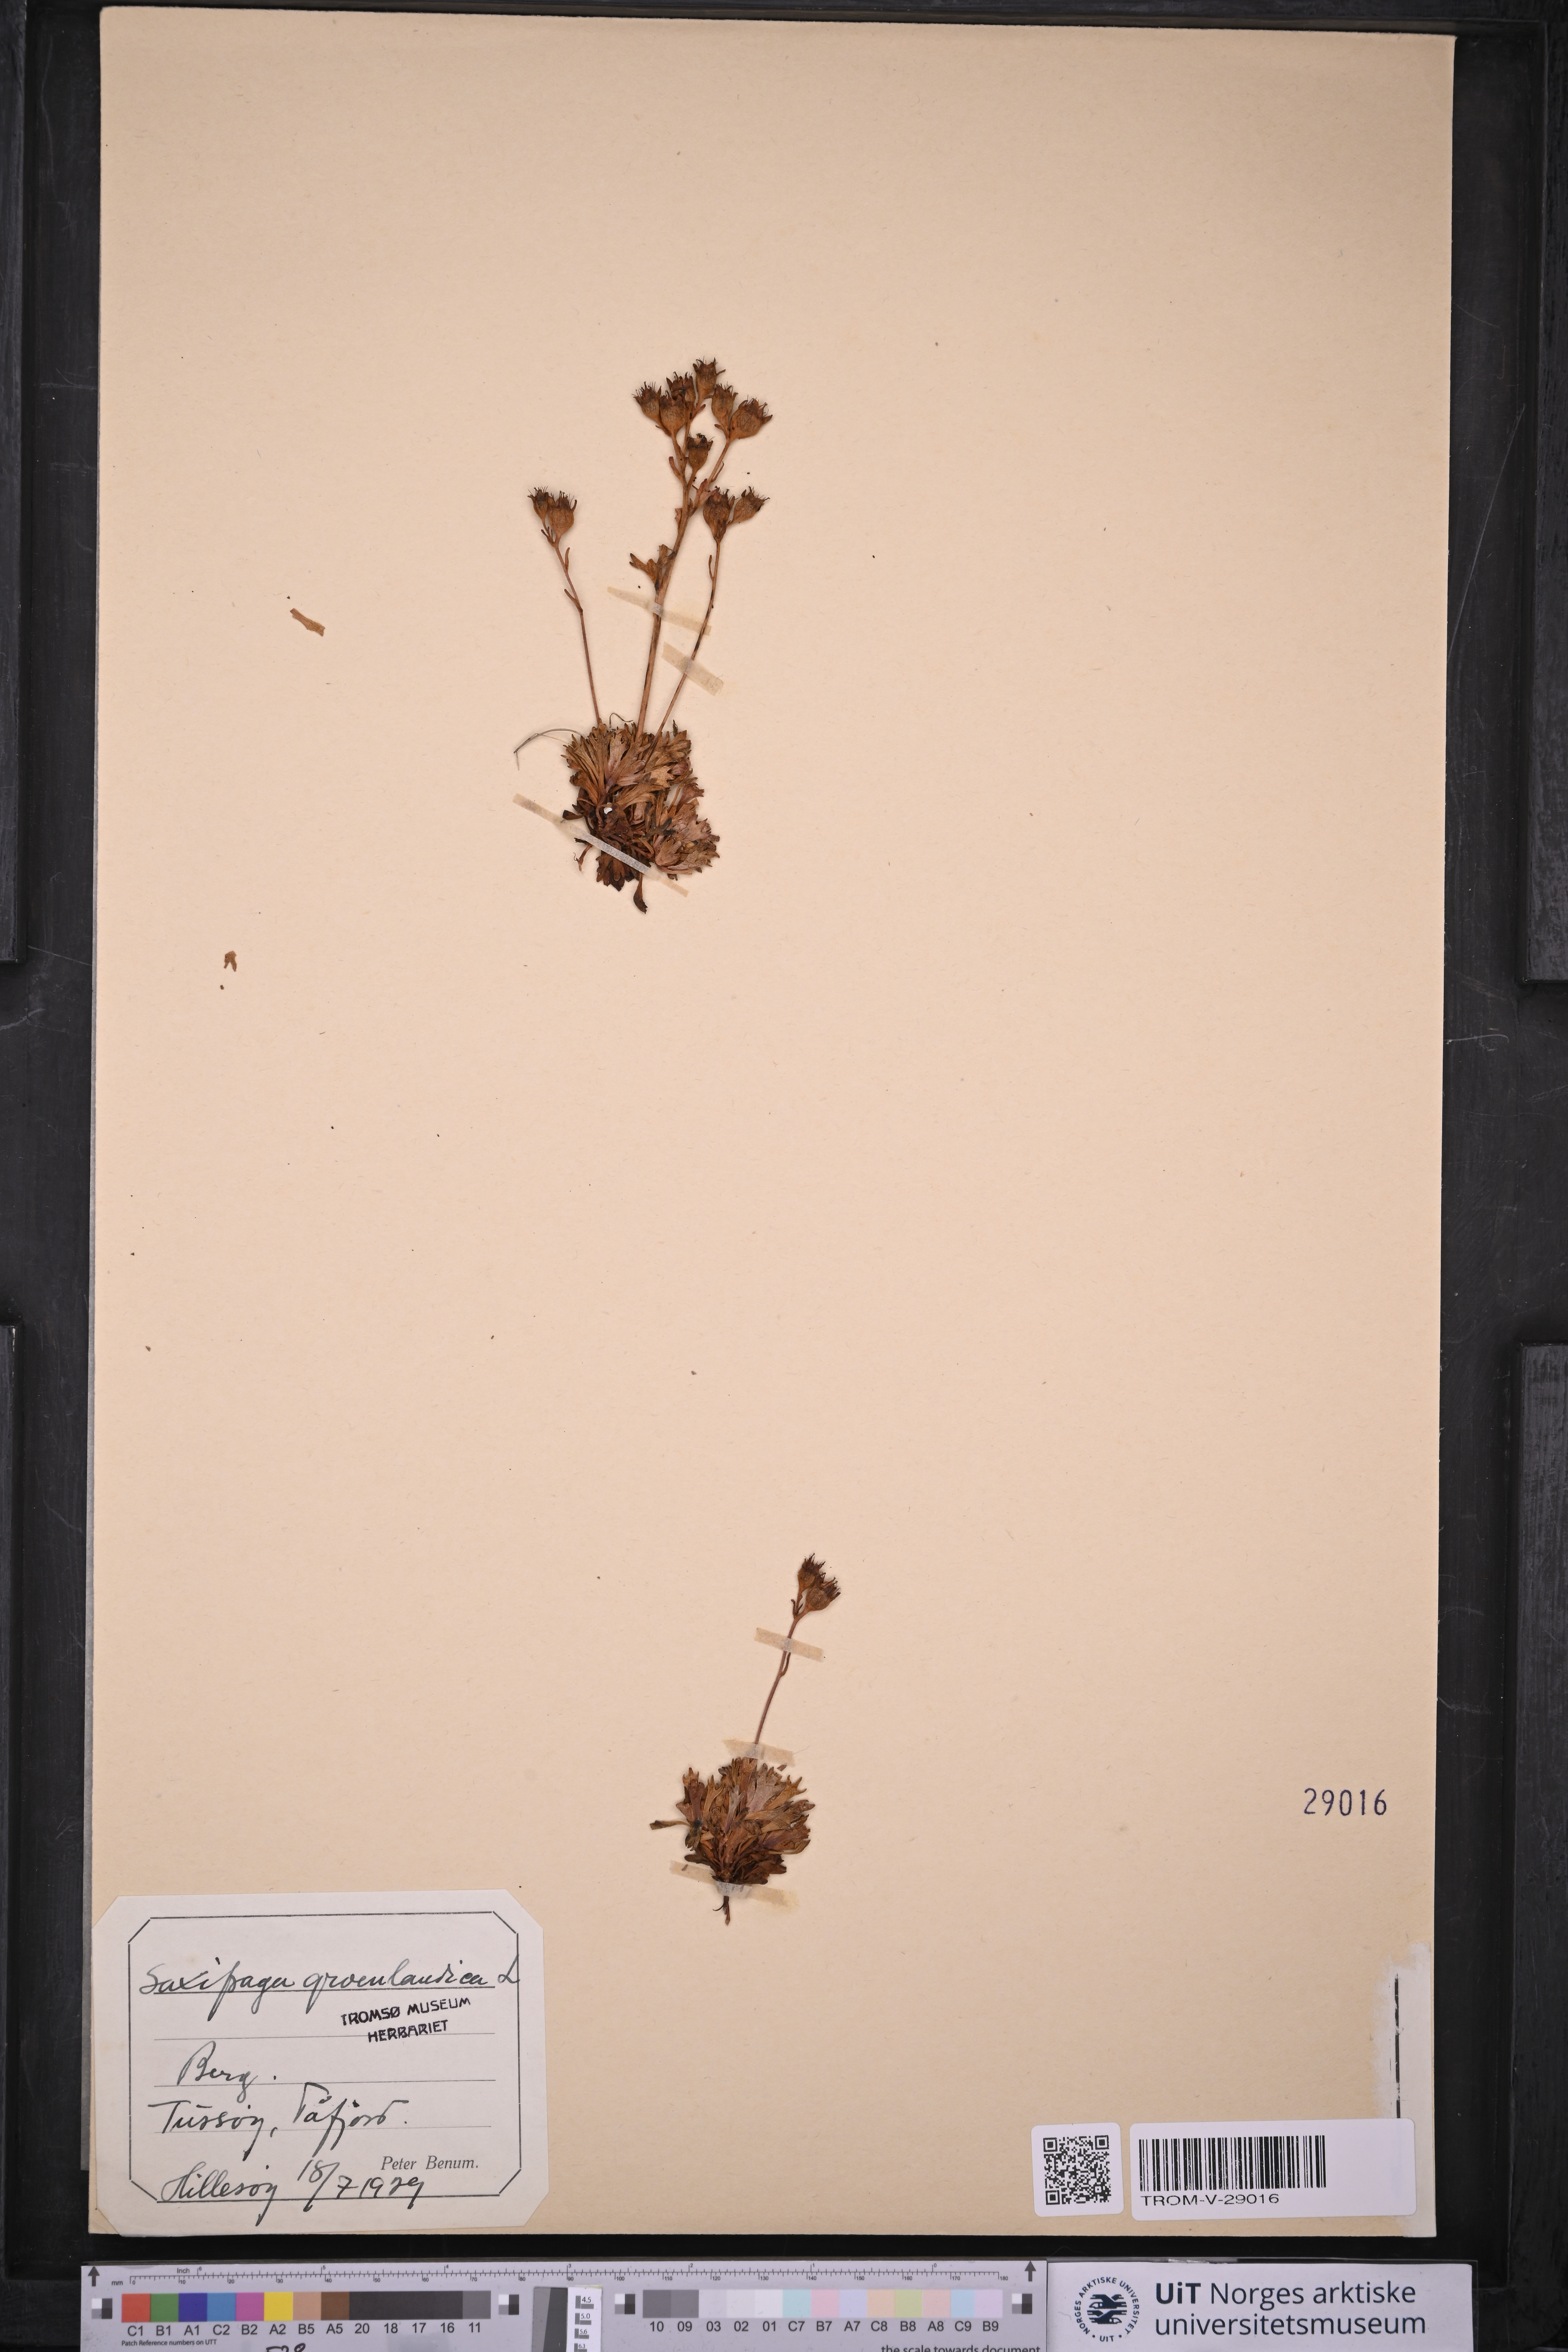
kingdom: Plantae
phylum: Tracheophyta
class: Magnoliopsida
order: Saxifragales
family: Saxifragaceae
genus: Saxifraga
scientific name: Saxifraga cespitosa
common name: Tufted saxifrage
